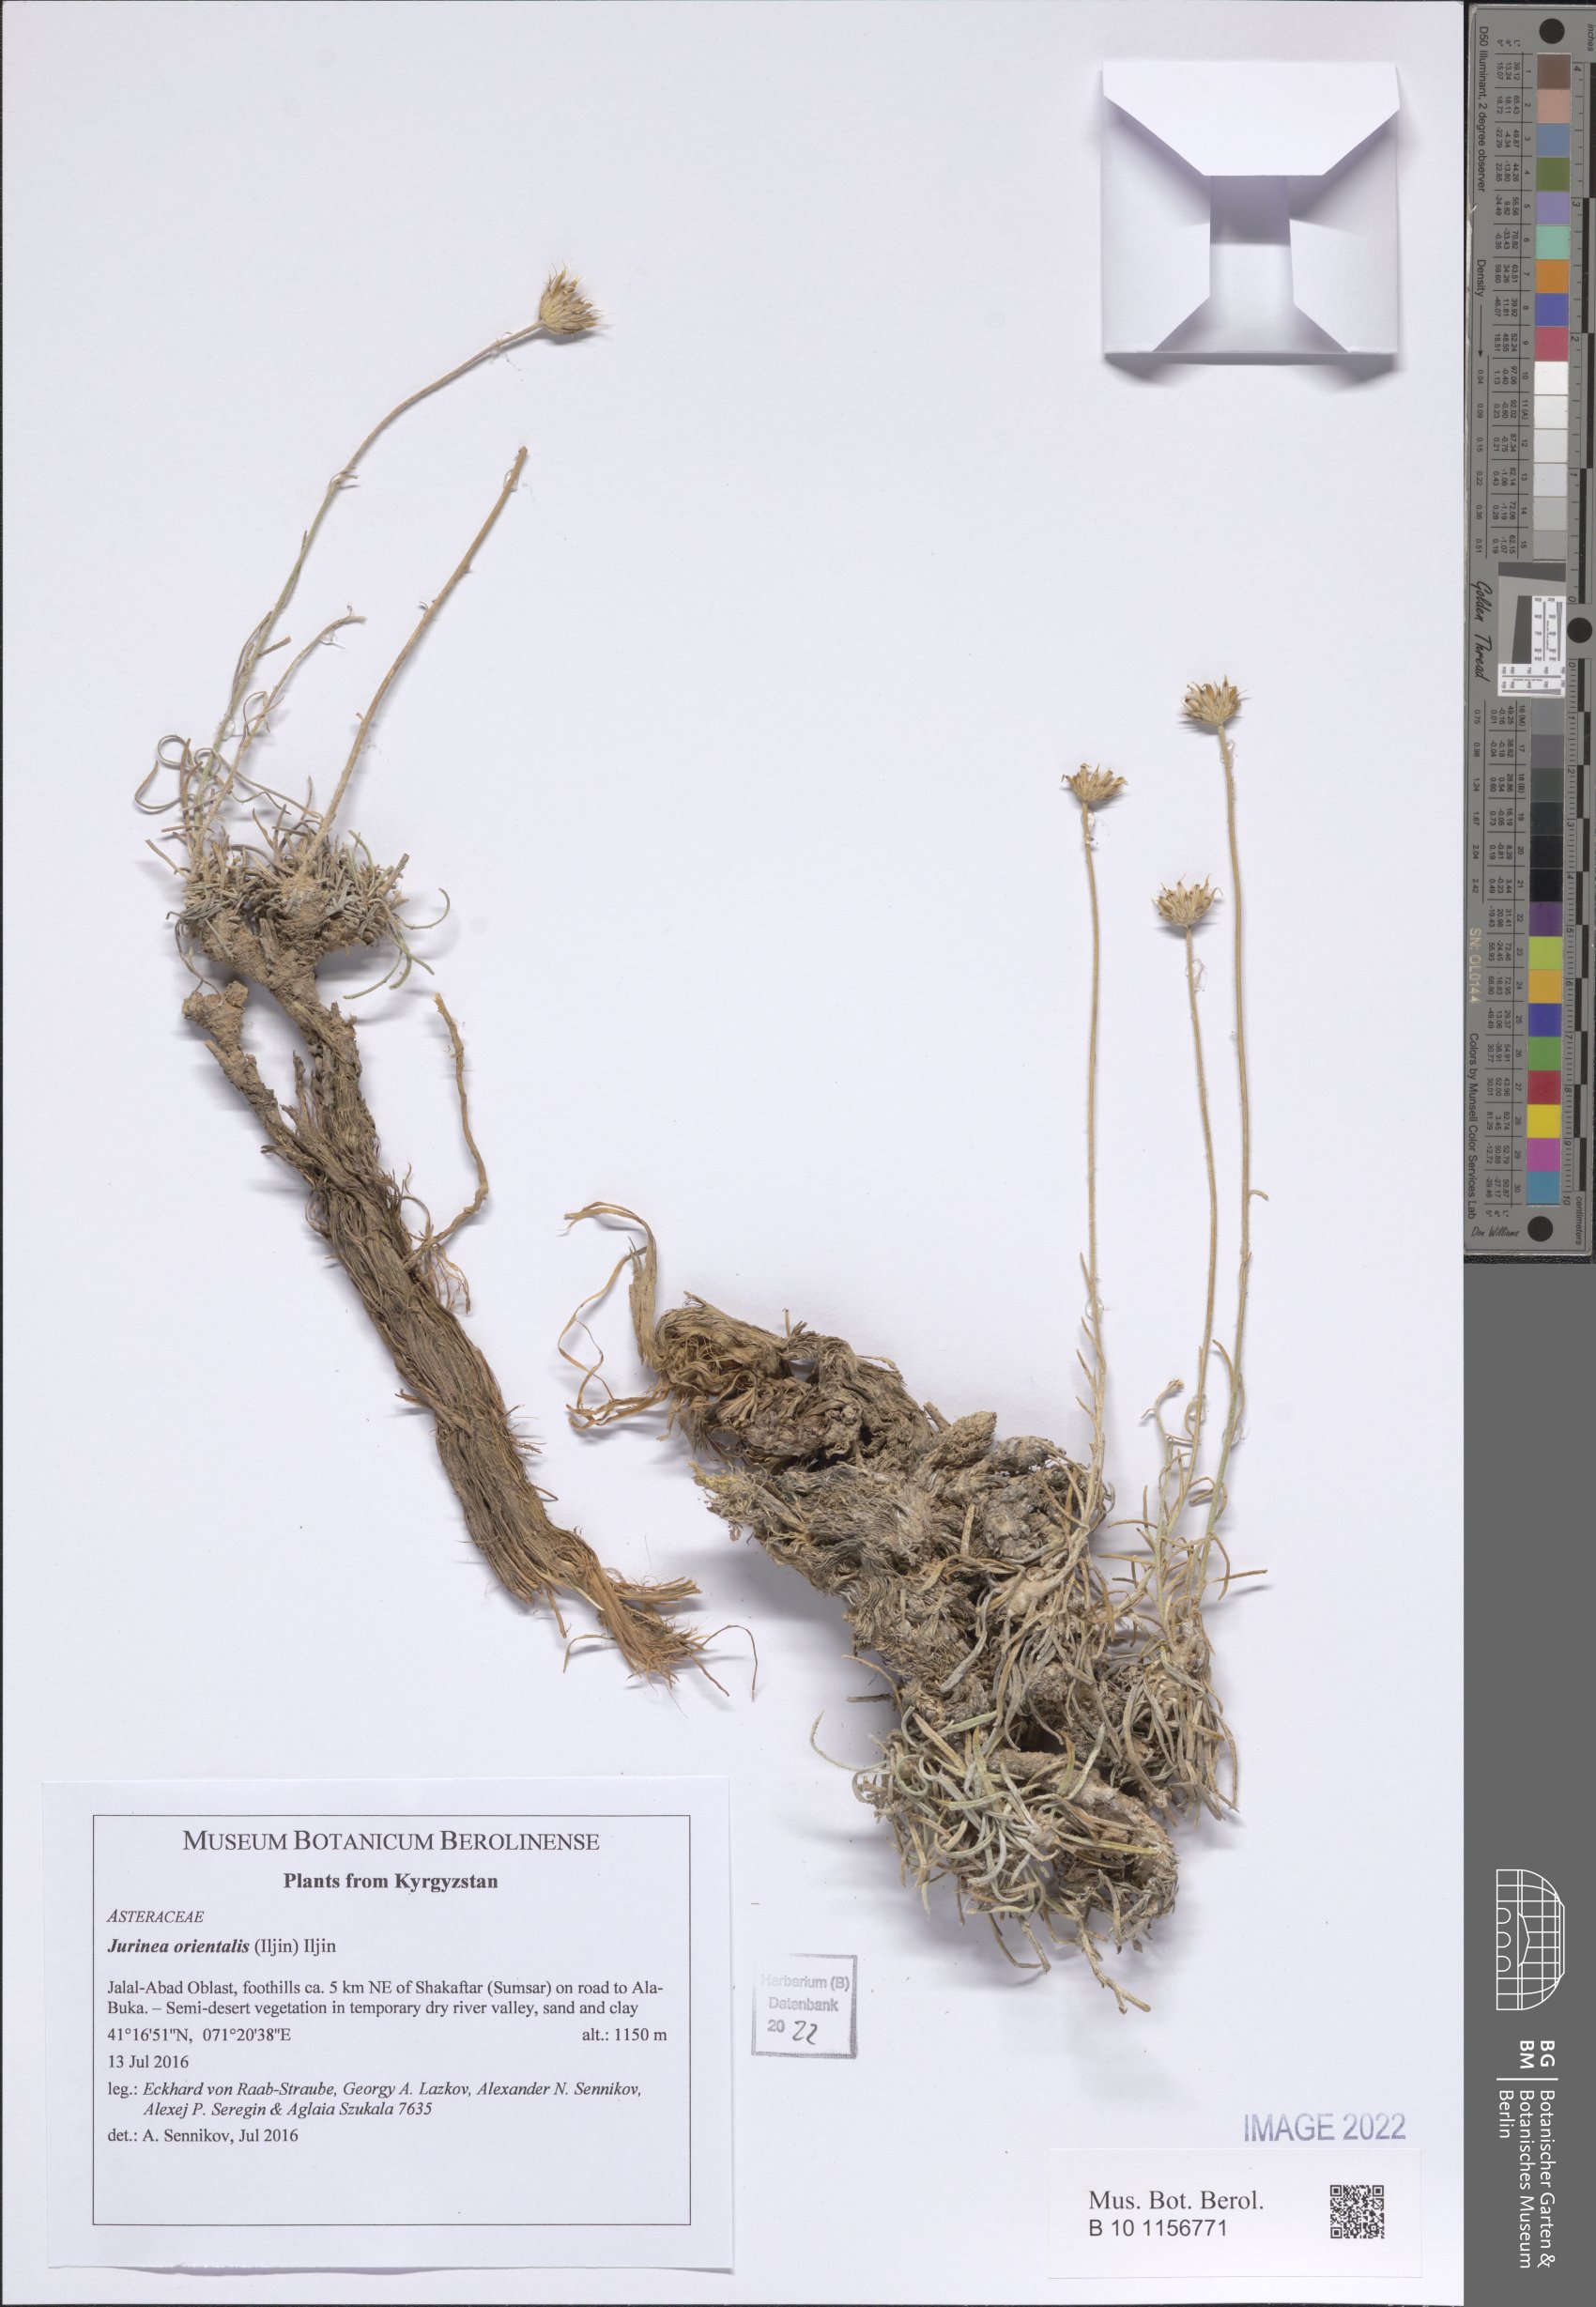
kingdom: Plantae
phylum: Tracheophyta
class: Magnoliopsida
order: Asterales
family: Asteraceae
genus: Jurinea
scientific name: Jurinea orientalis
